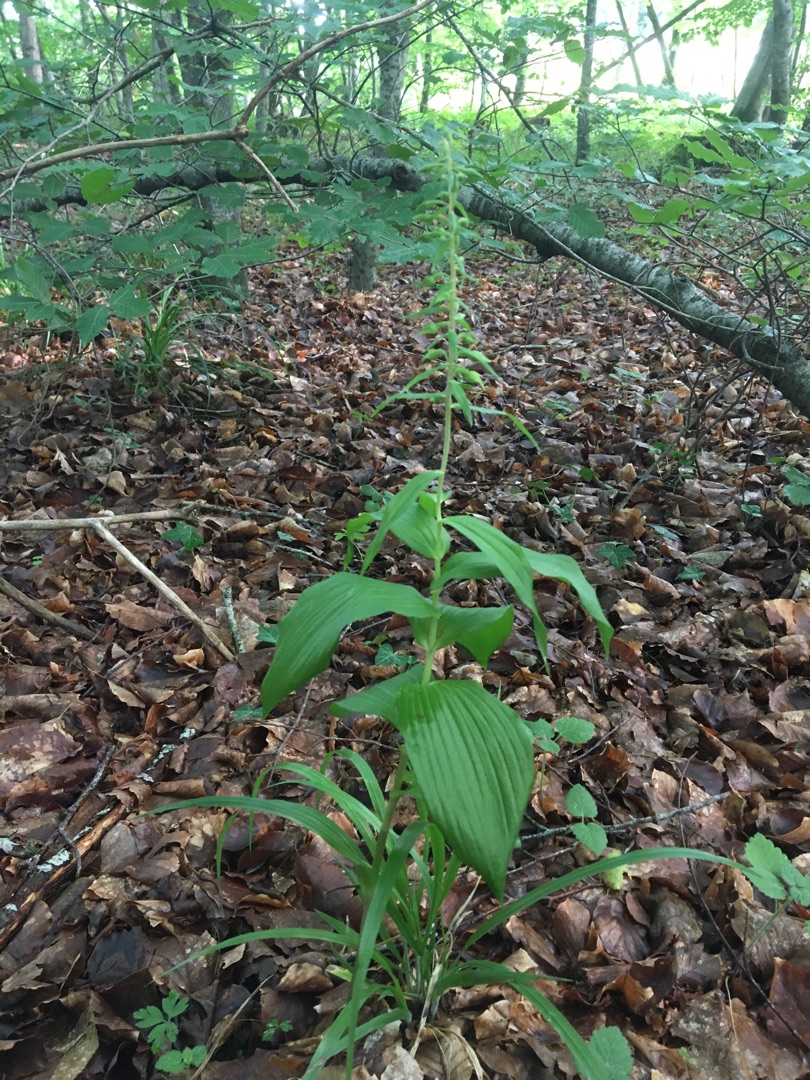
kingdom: Plantae
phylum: Tracheophyta
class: Liliopsida
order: Asparagales
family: Orchidaceae
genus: Epipactis
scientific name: Epipactis helleborine
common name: Skov-hullæbe
